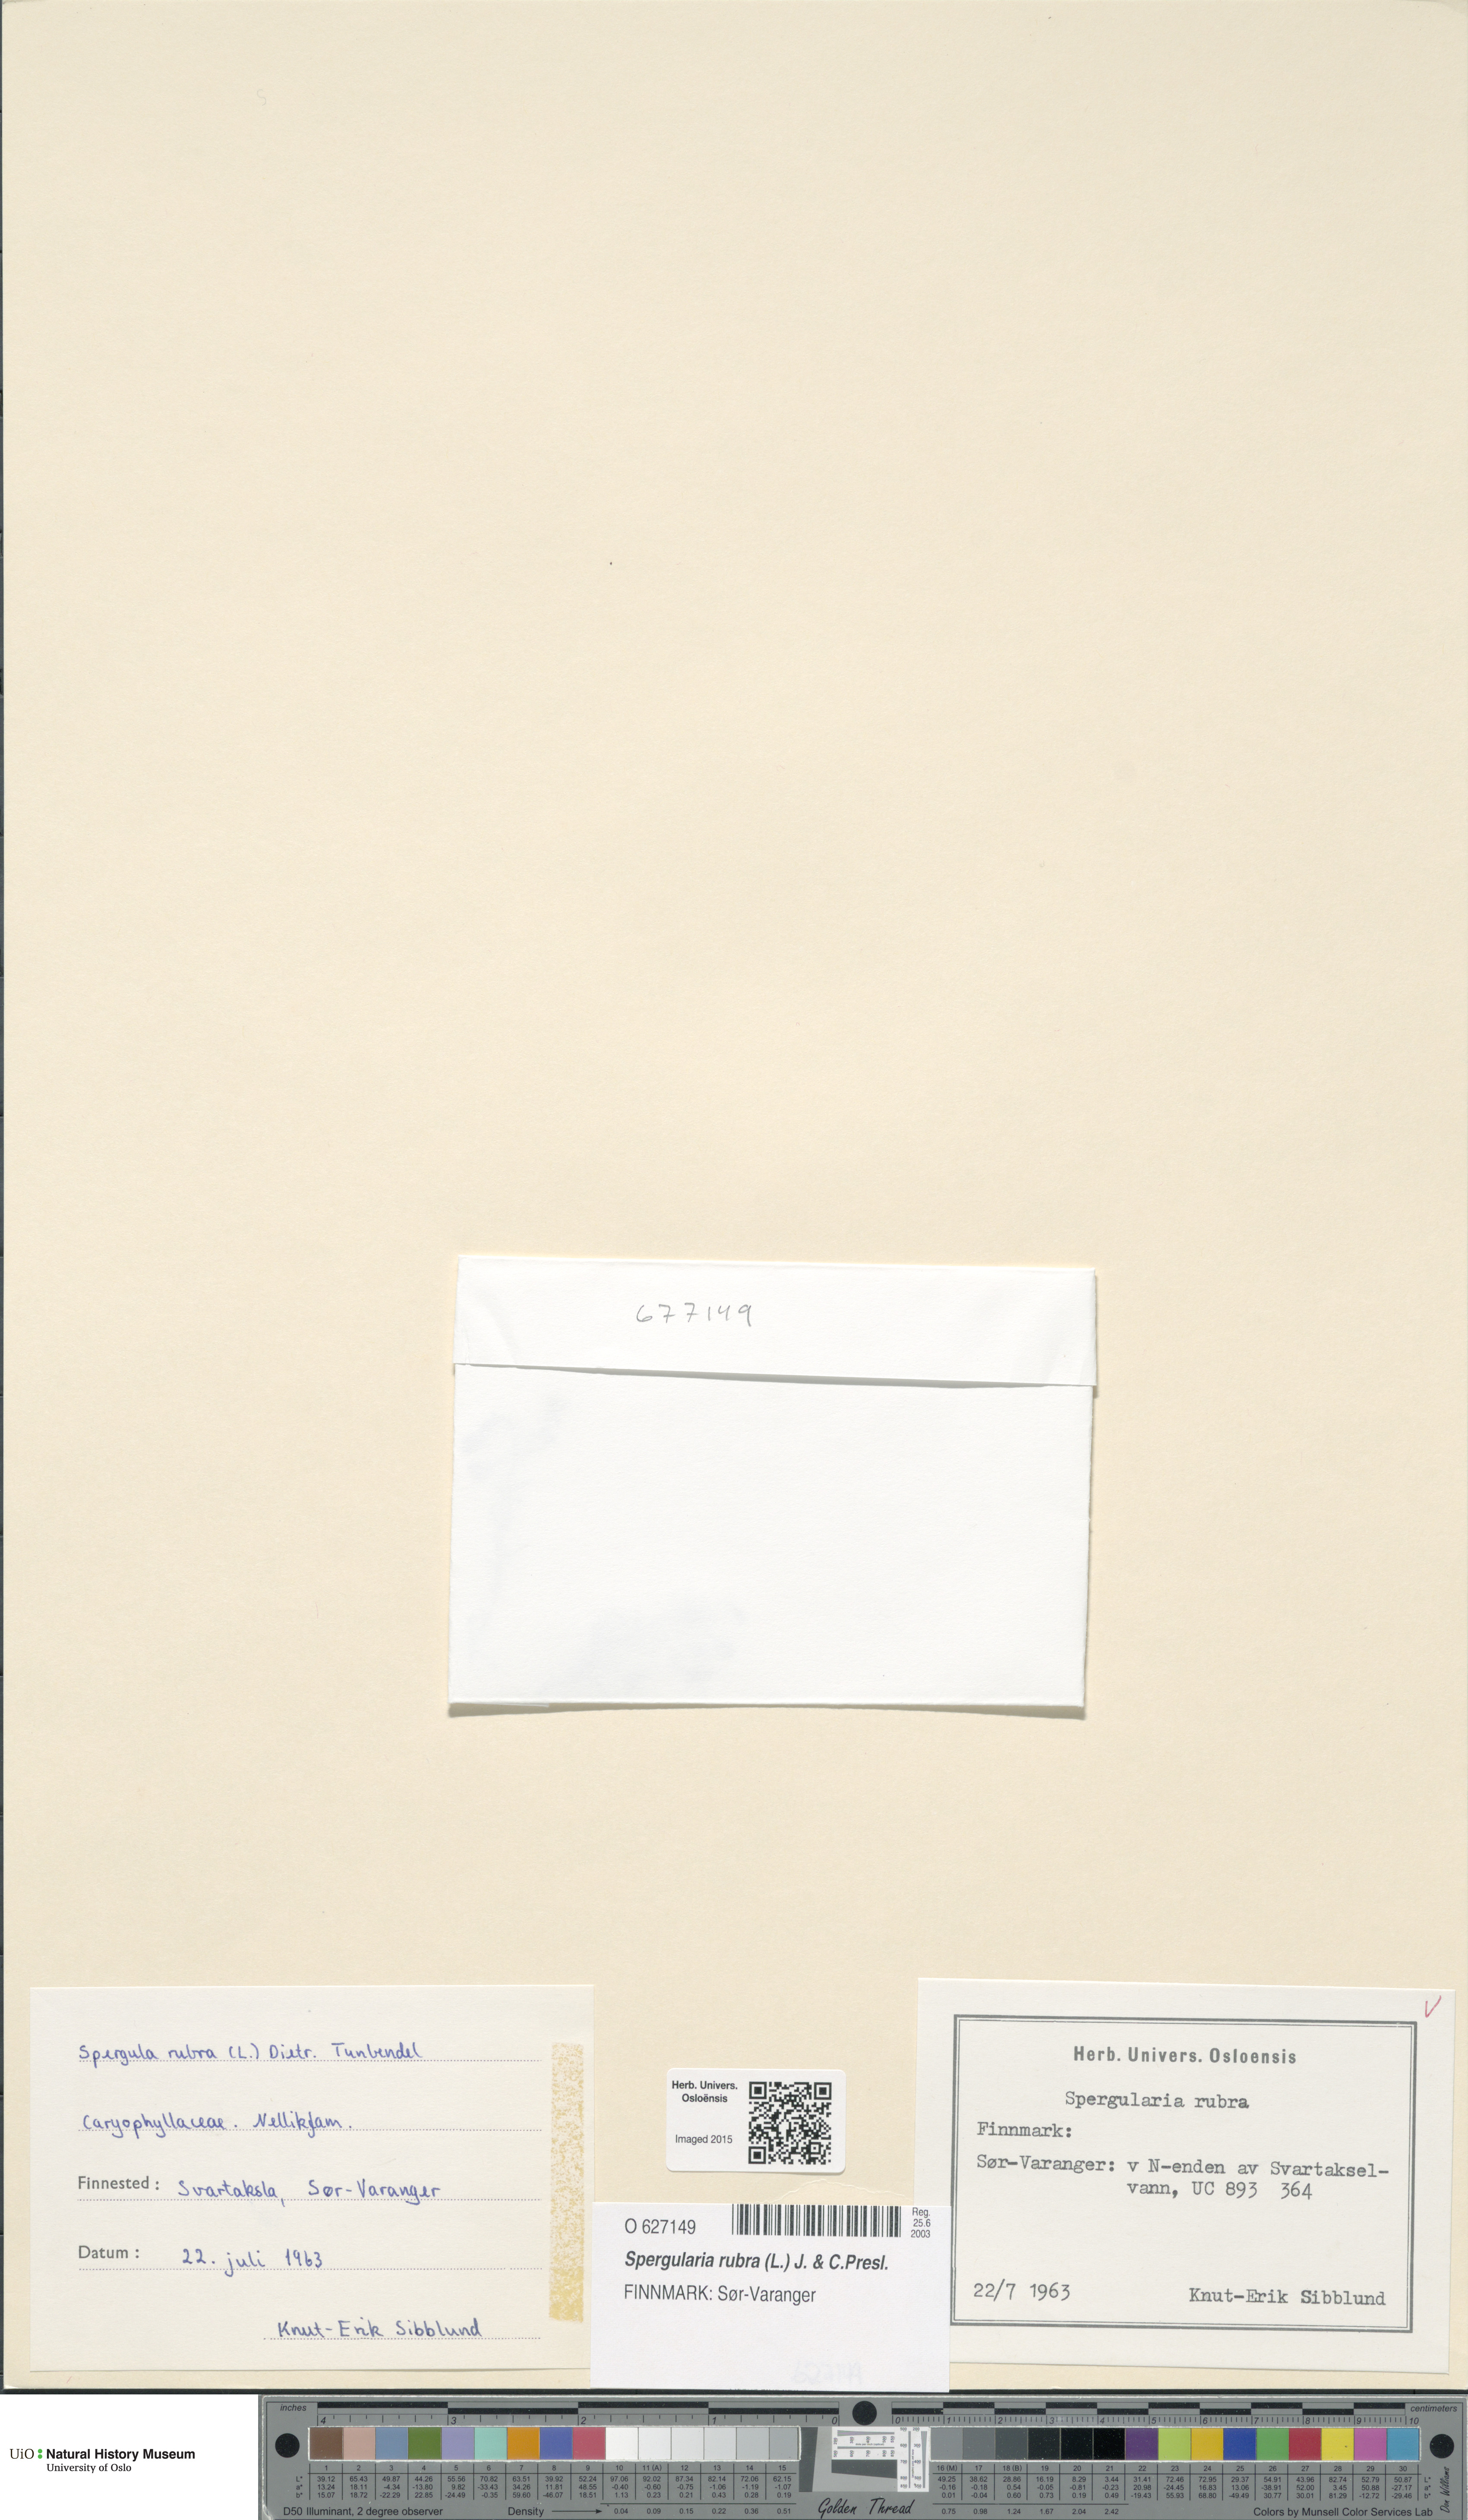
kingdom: Plantae
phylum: Tracheophyta
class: Magnoliopsida
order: Caryophyllales
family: Caryophyllaceae
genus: Spergularia
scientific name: Spergularia rubra
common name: Red sand-spurrey
